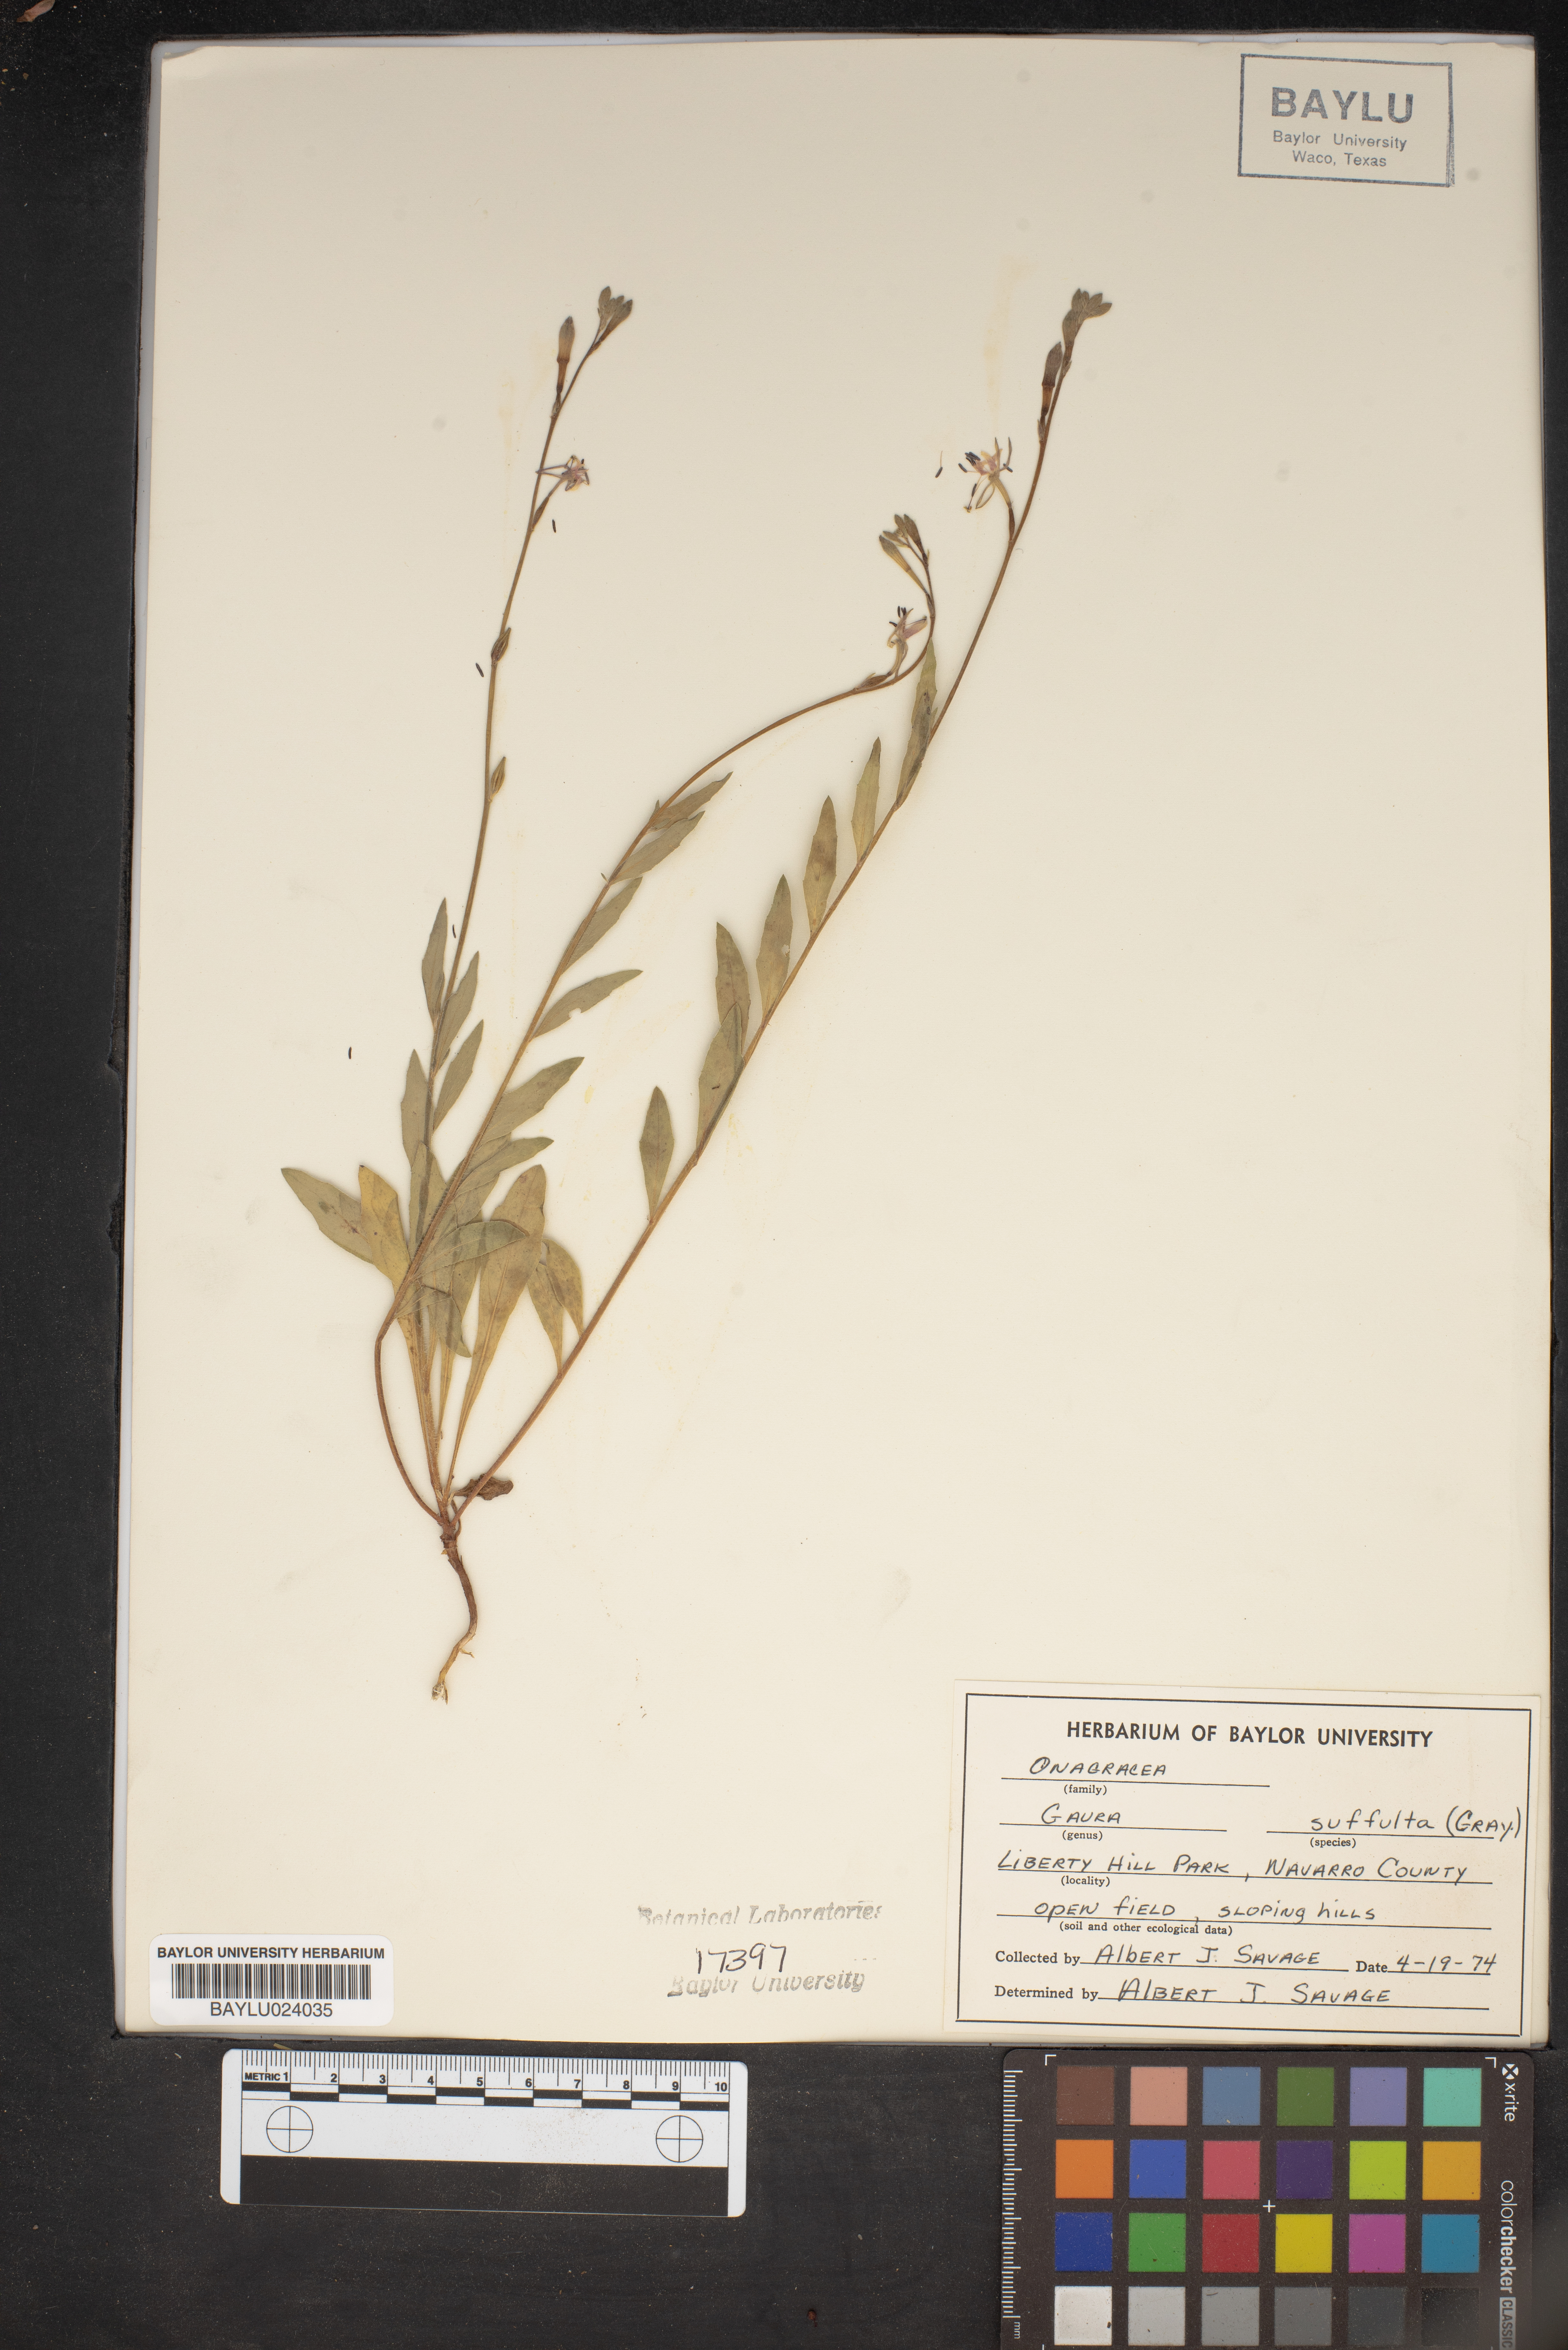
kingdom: Plantae
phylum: Tracheophyta
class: Magnoliopsida
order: Myrtales
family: Onagraceae
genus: Oenothera
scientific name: Oenothera Gaura suffulta
